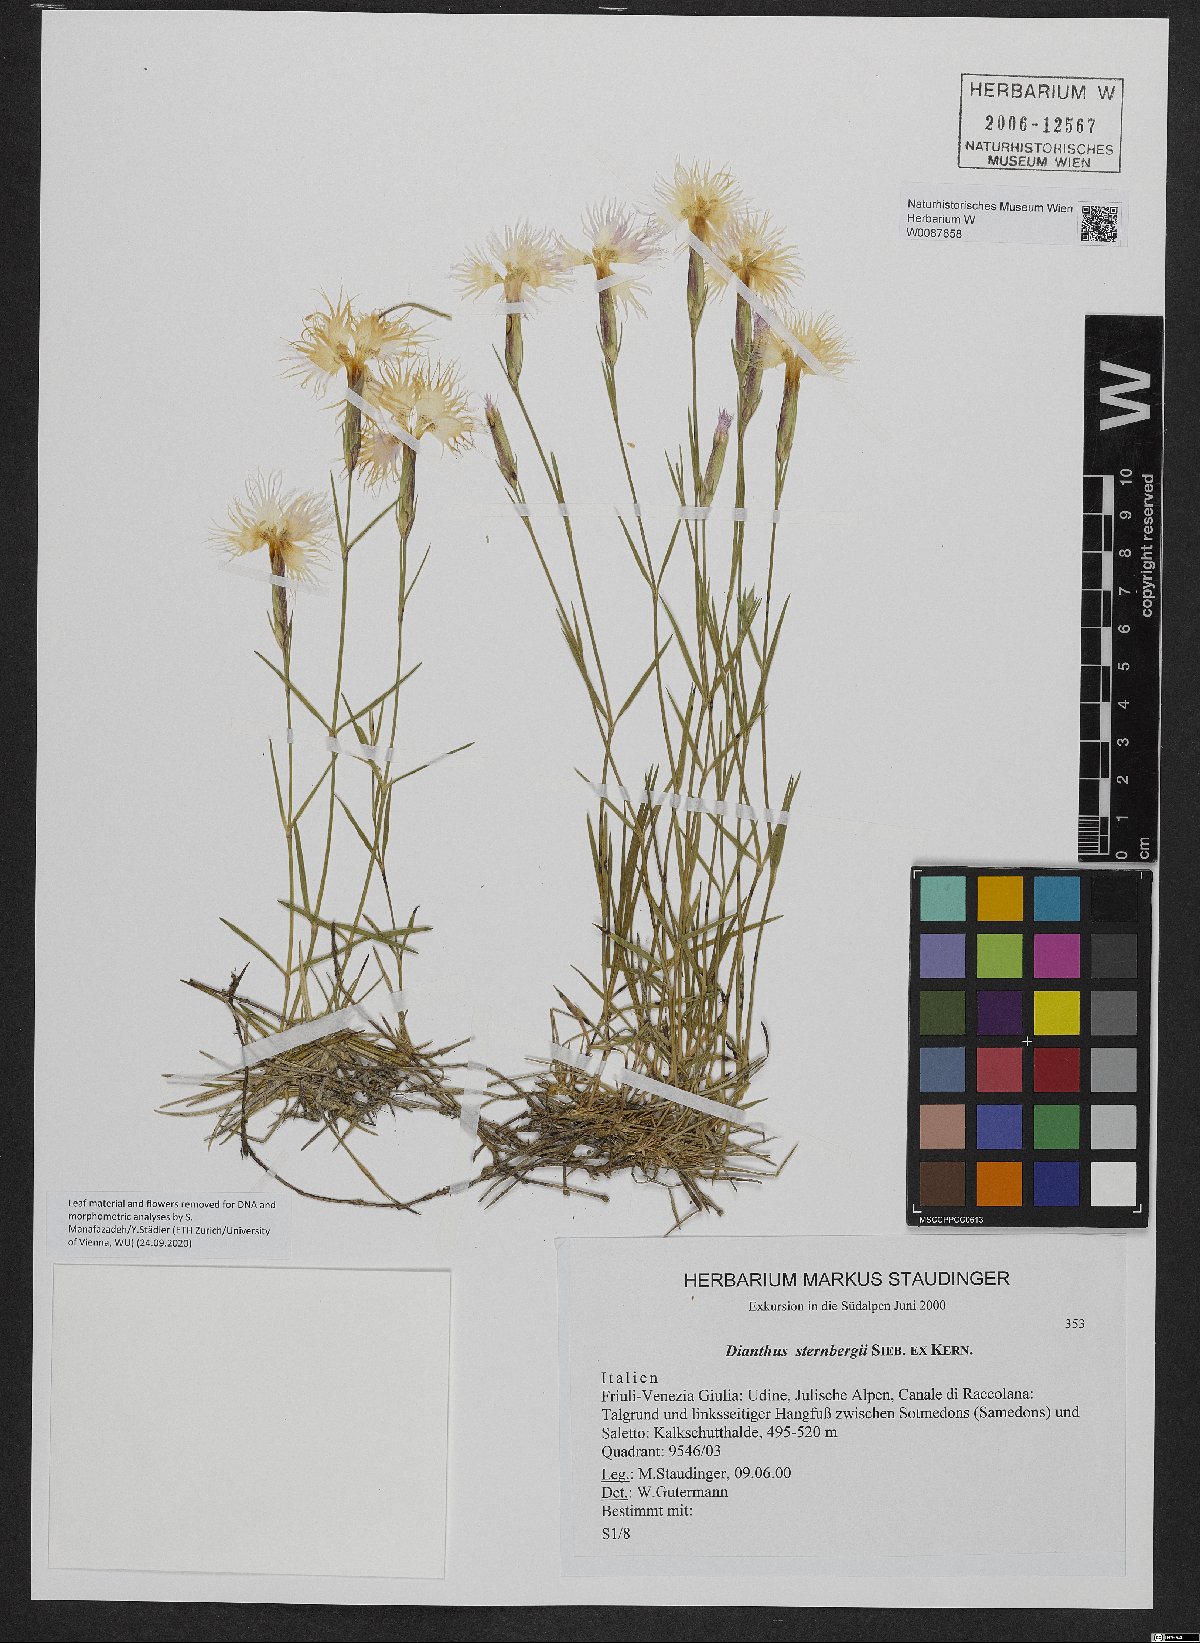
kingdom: Plantae
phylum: Tracheophyta
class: Magnoliopsida
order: Caryophyllales
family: Caryophyllaceae
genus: Dianthus
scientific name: Dianthus sternbergii
